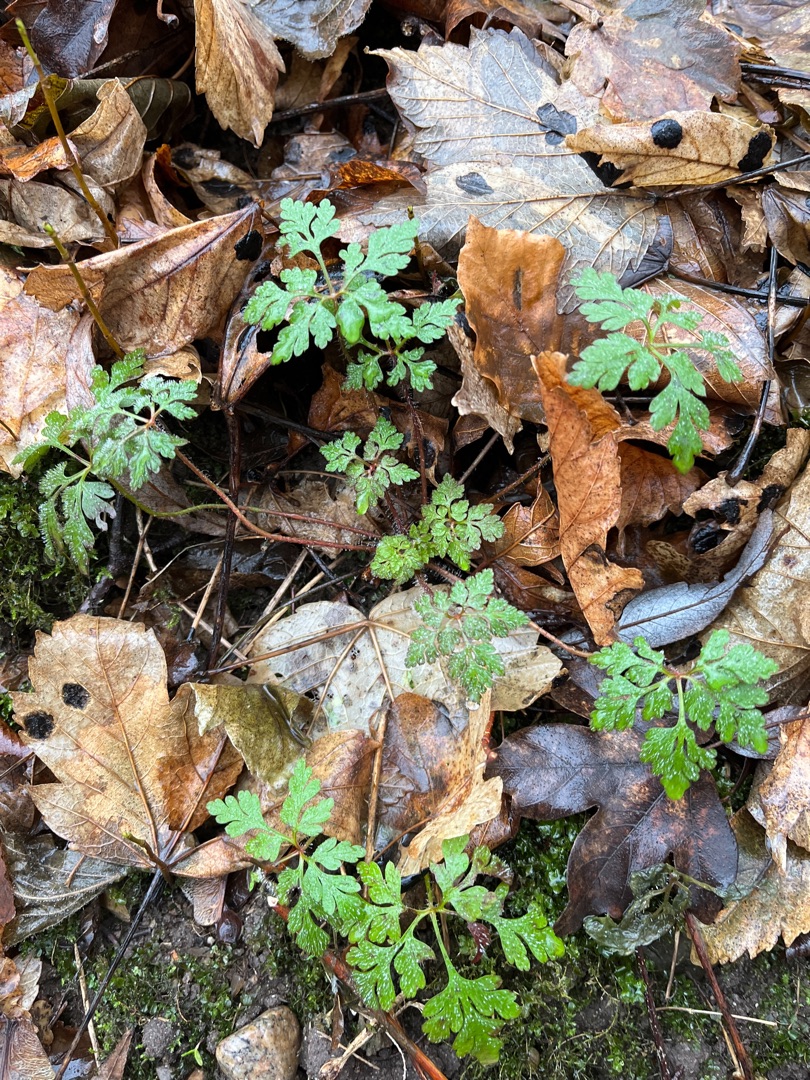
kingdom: Plantae
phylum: Tracheophyta
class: Magnoliopsida
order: Geraniales
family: Geraniaceae
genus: Geranium
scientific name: Geranium robertianum
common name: Stinkende storkenæb
